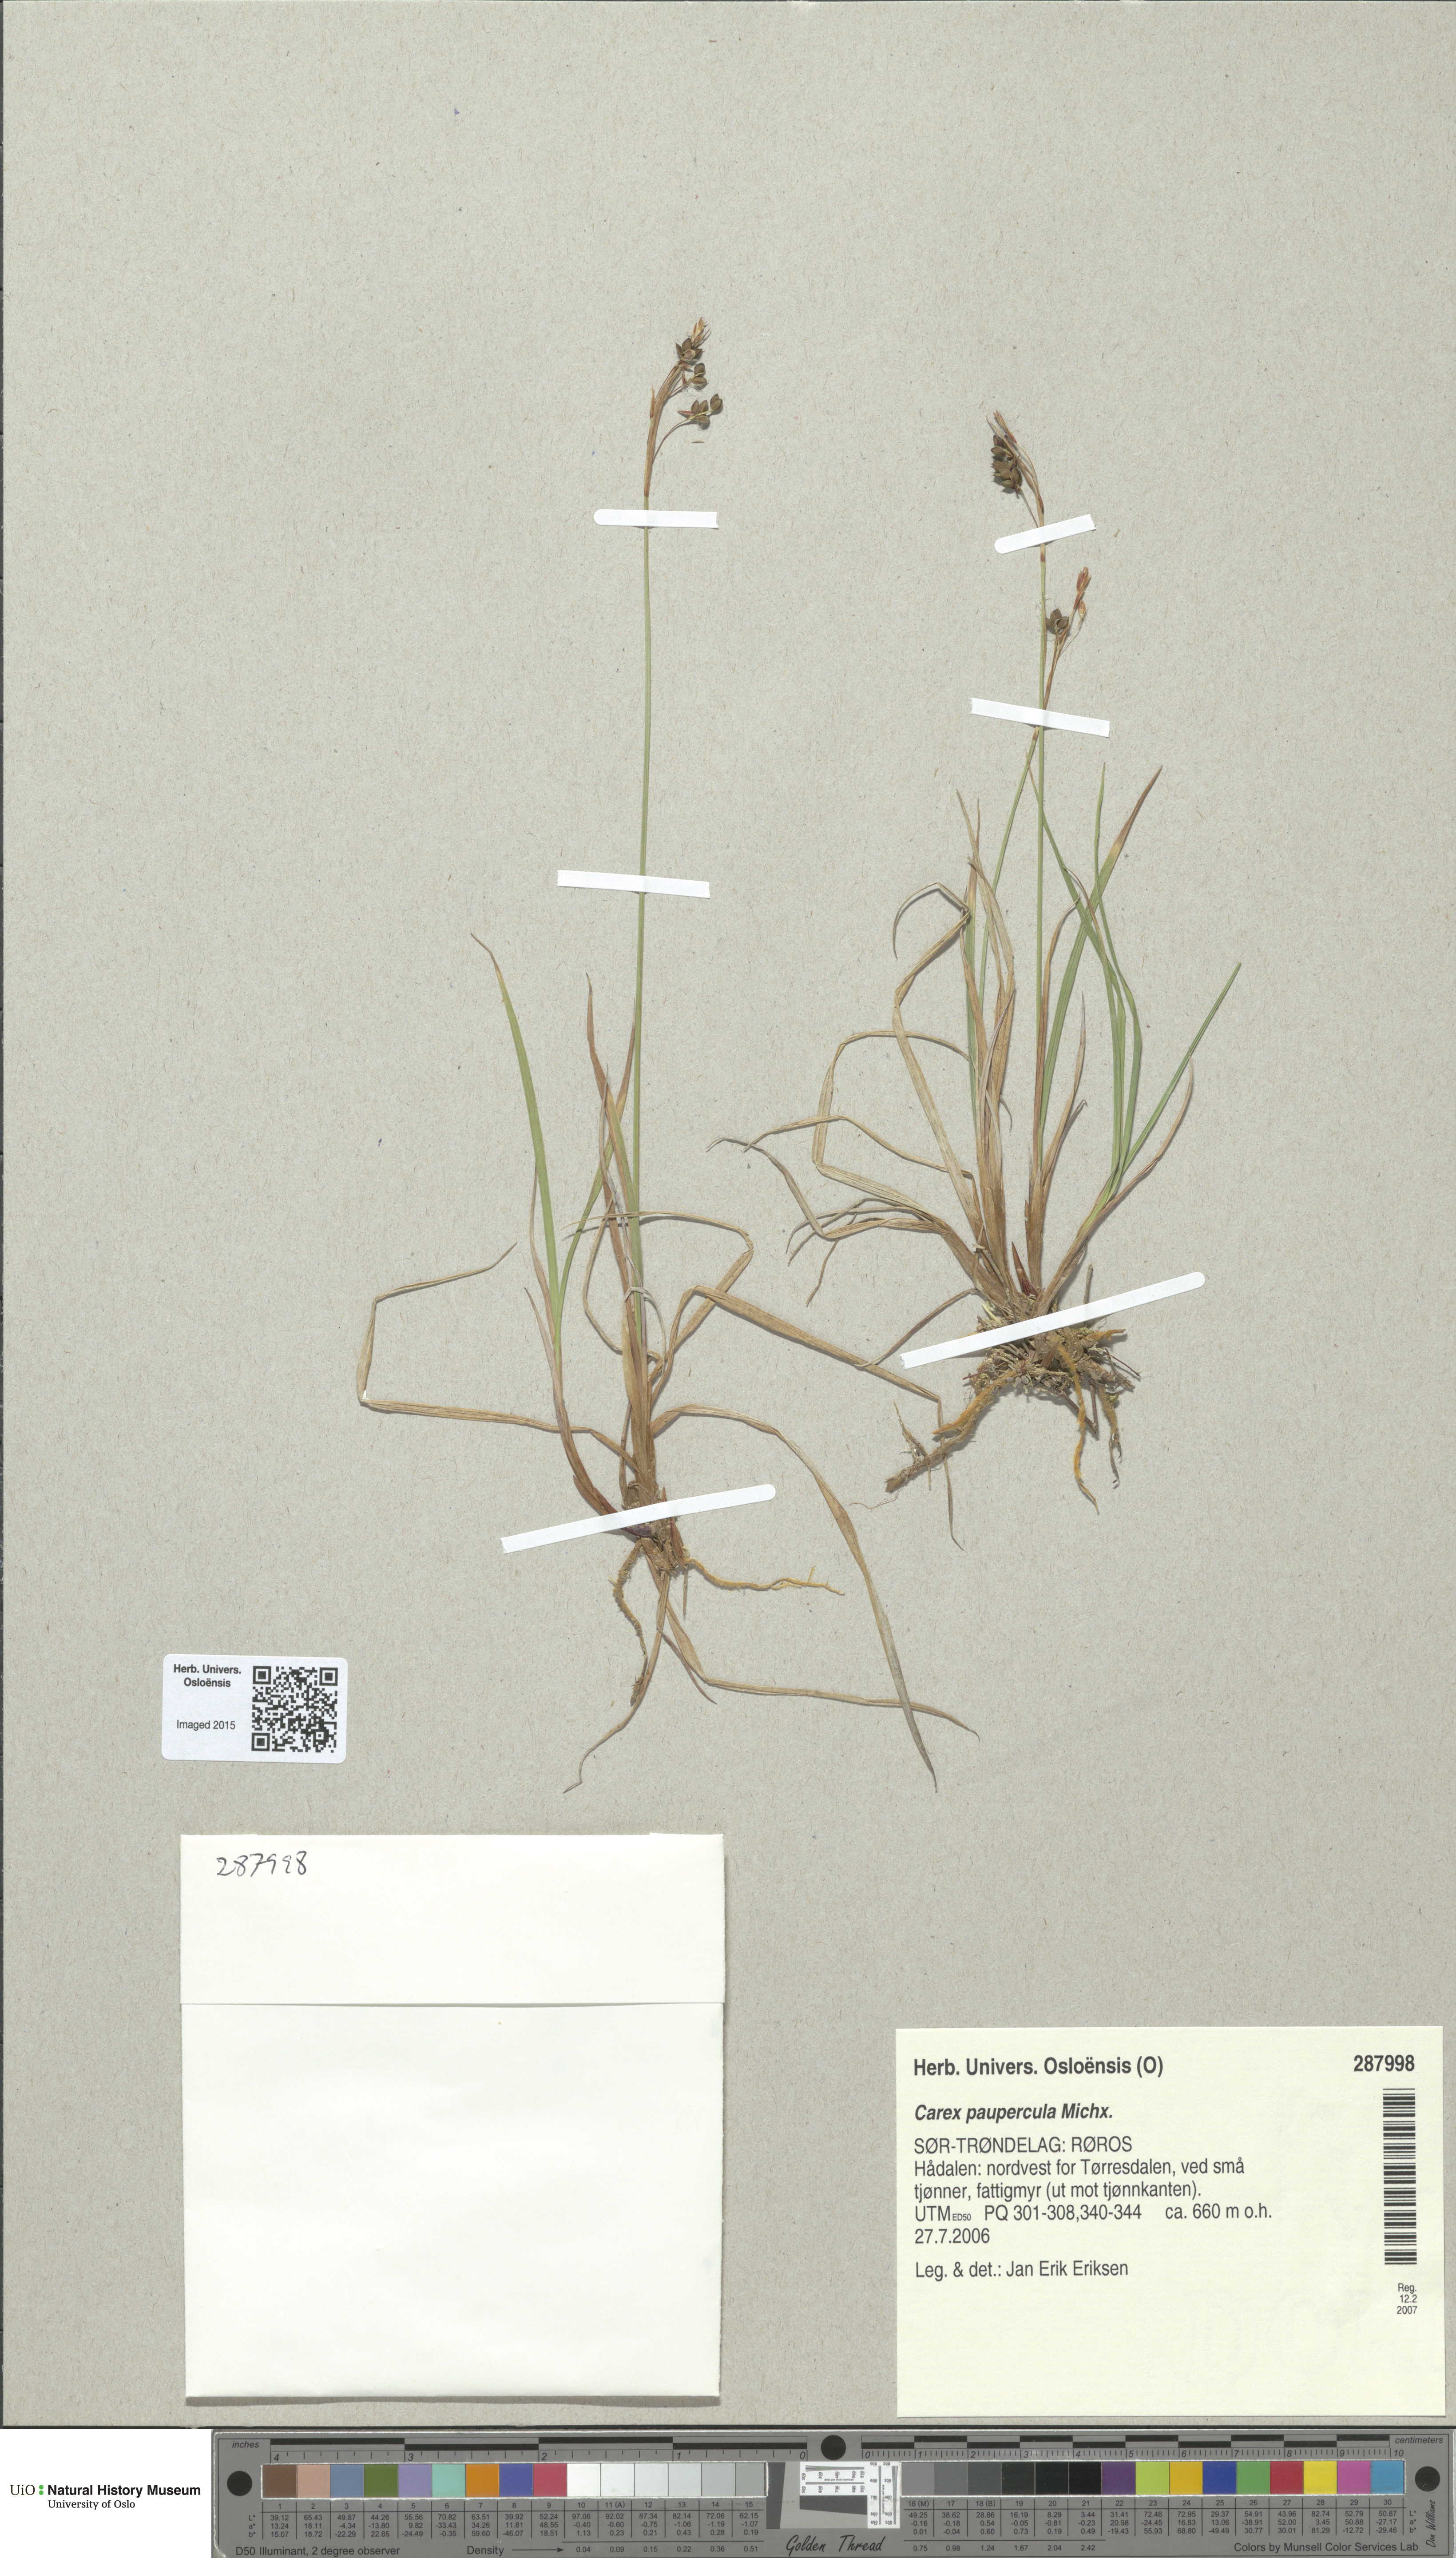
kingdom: Plantae
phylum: Tracheophyta
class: Liliopsida
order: Poales
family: Cyperaceae
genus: Carex
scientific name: Carex magellanica
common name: Bog sedge
